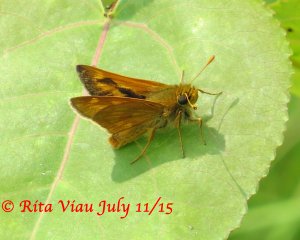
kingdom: Animalia
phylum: Arthropoda
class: Insecta
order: Lepidoptera
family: Hesperiidae
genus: Polites
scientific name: Polites
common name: Long Dash Skipper
